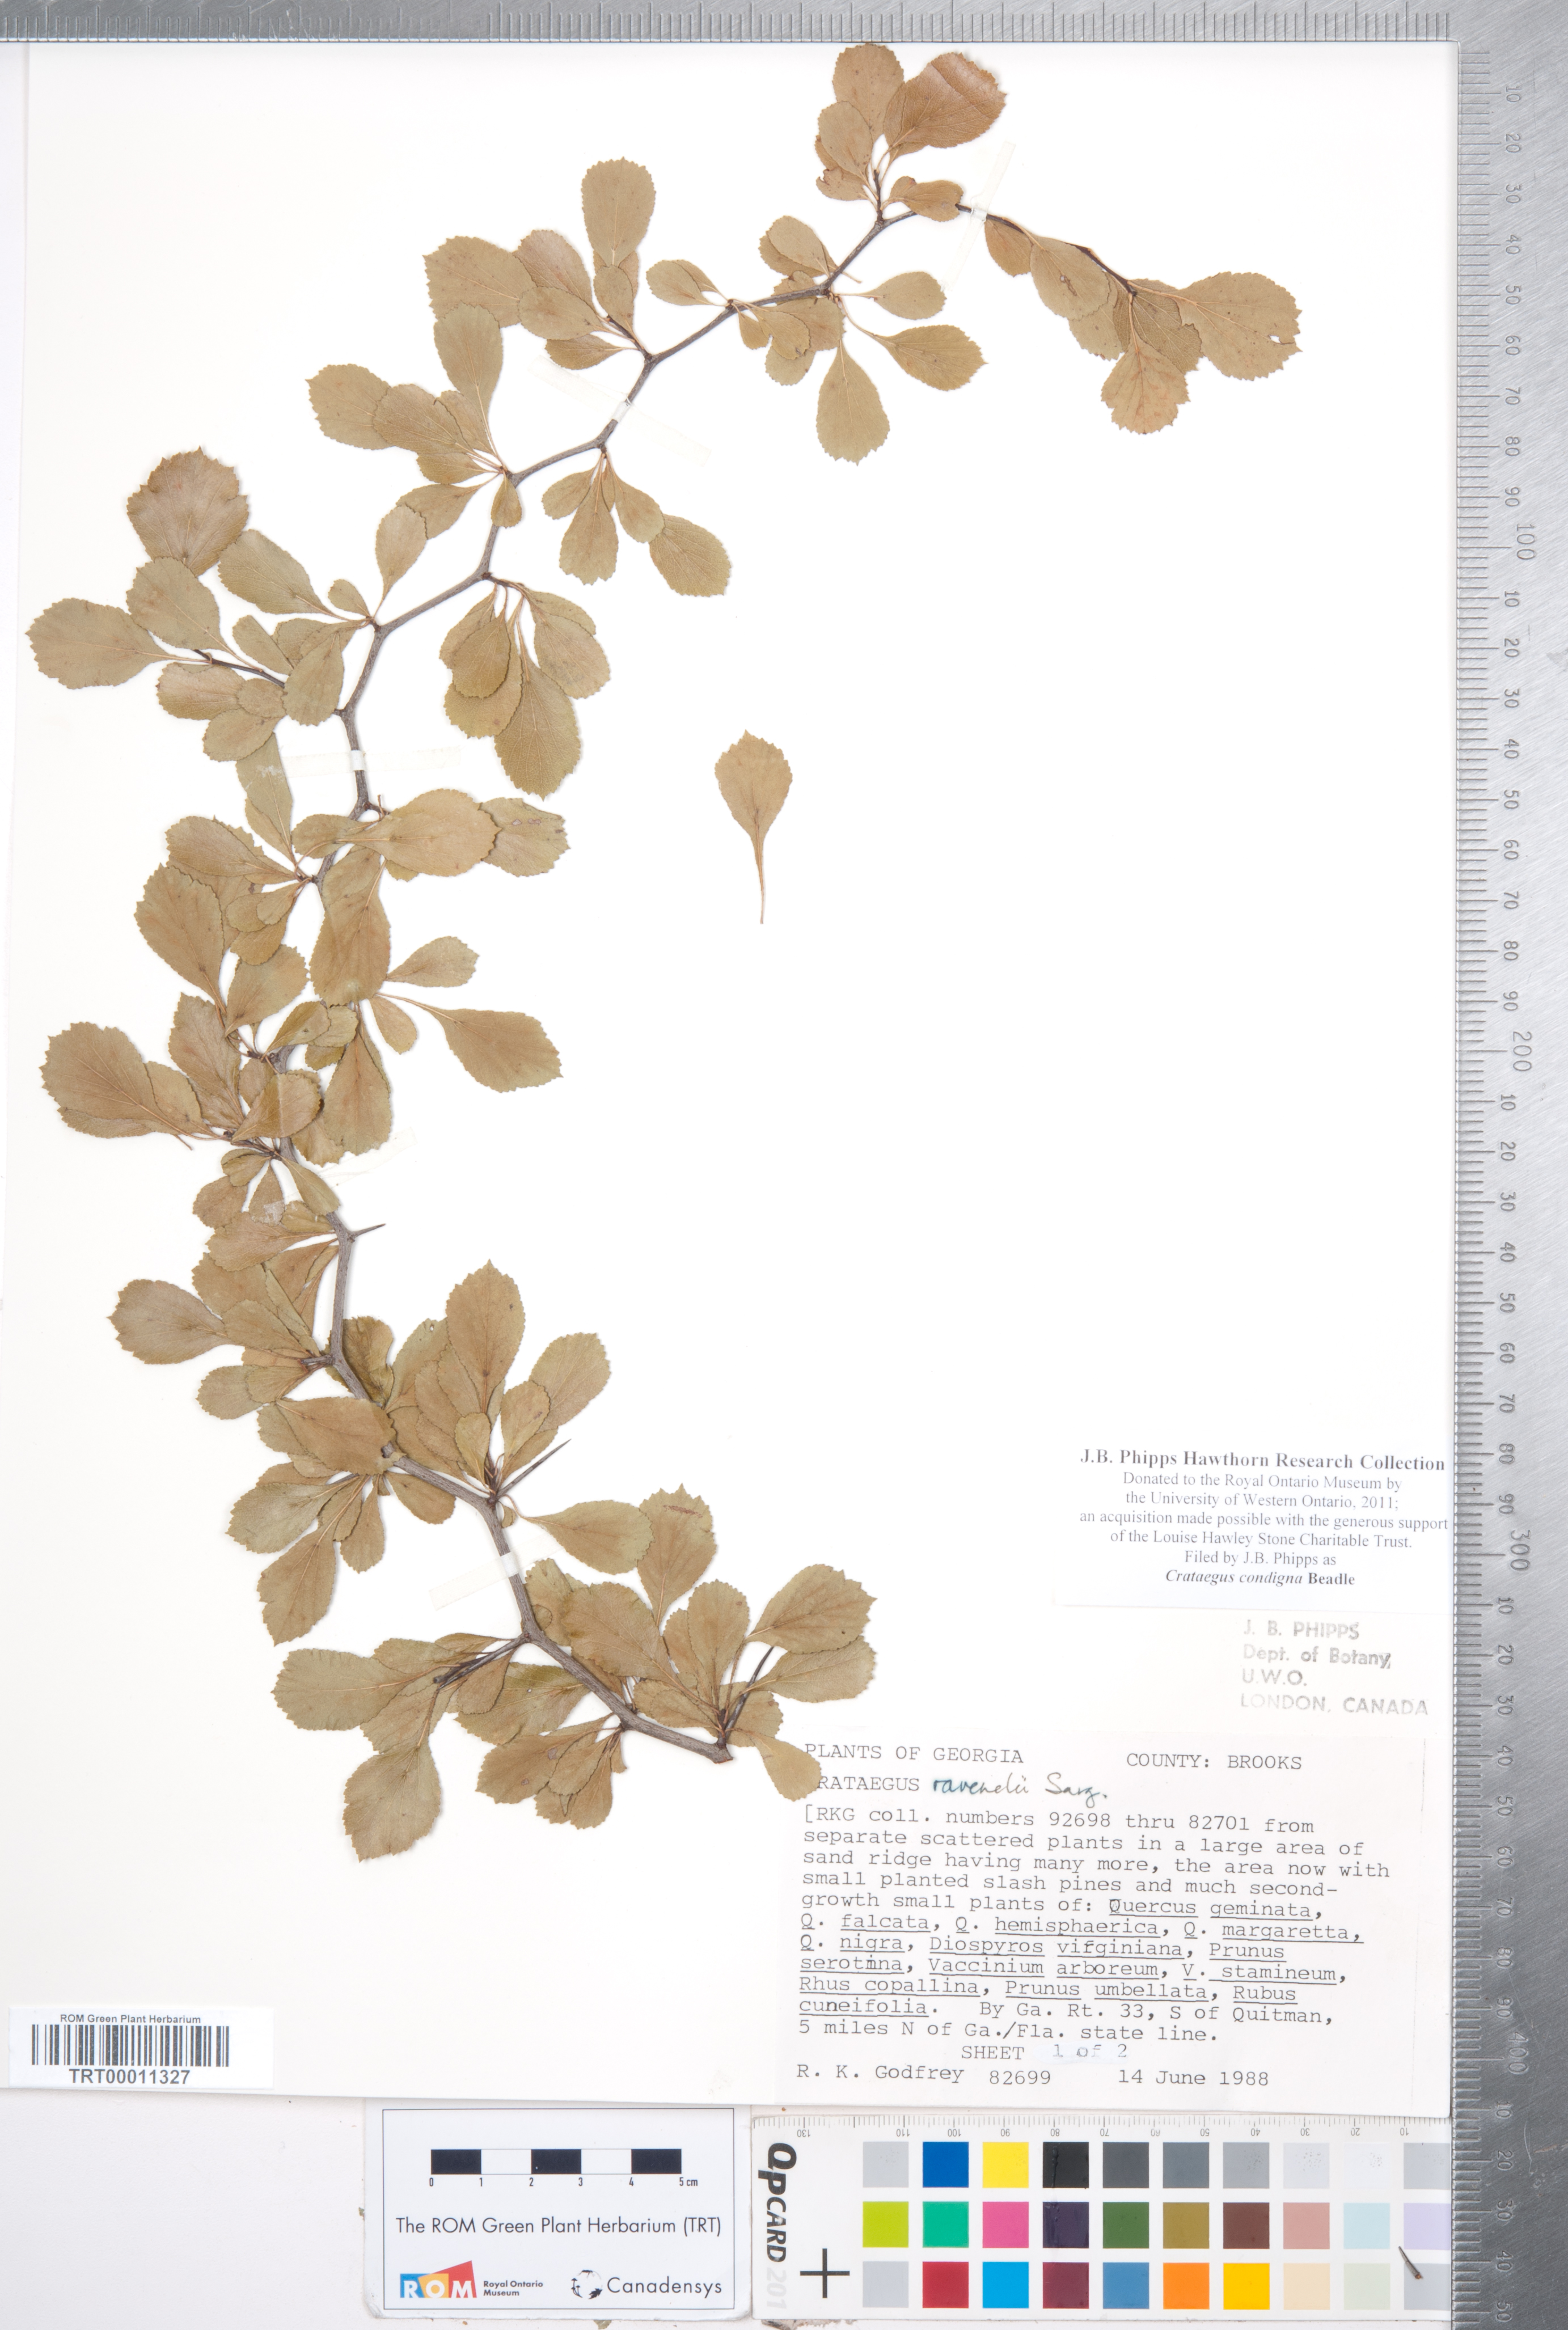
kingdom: Plantae
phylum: Tracheophyta
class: Magnoliopsida
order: Rosales
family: Rosaceae
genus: Crataegus
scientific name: Crataegus condigna
